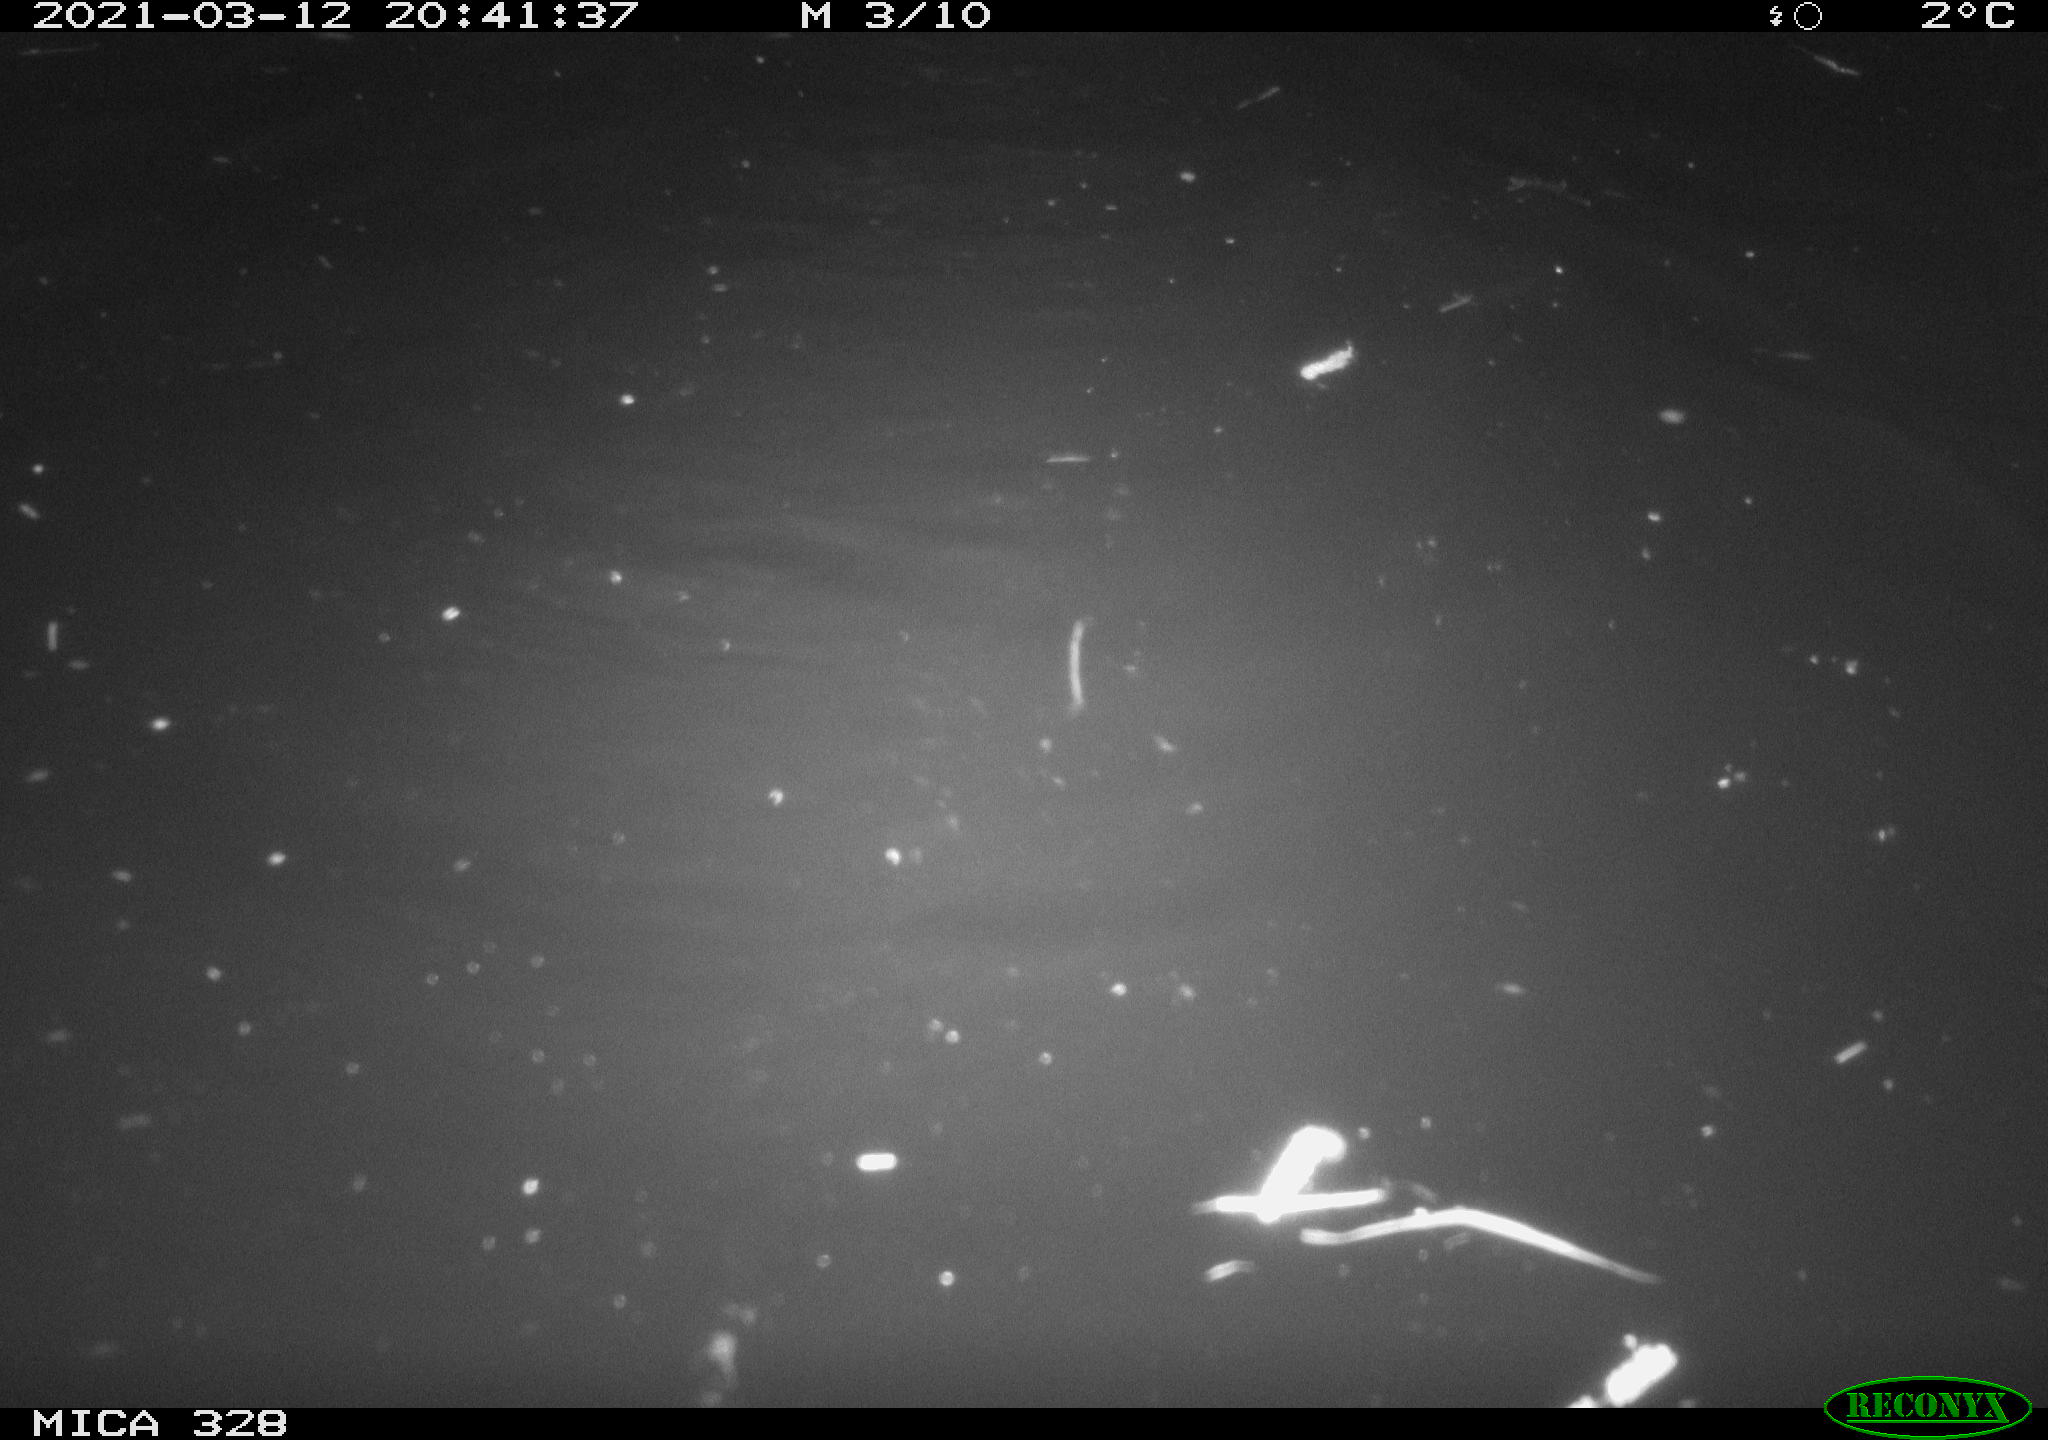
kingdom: Animalia
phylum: Chordata
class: Mammalia
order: Rodentia
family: Cricetidae
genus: Ondatra
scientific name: Ondatra zibethicus
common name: Muskrat
